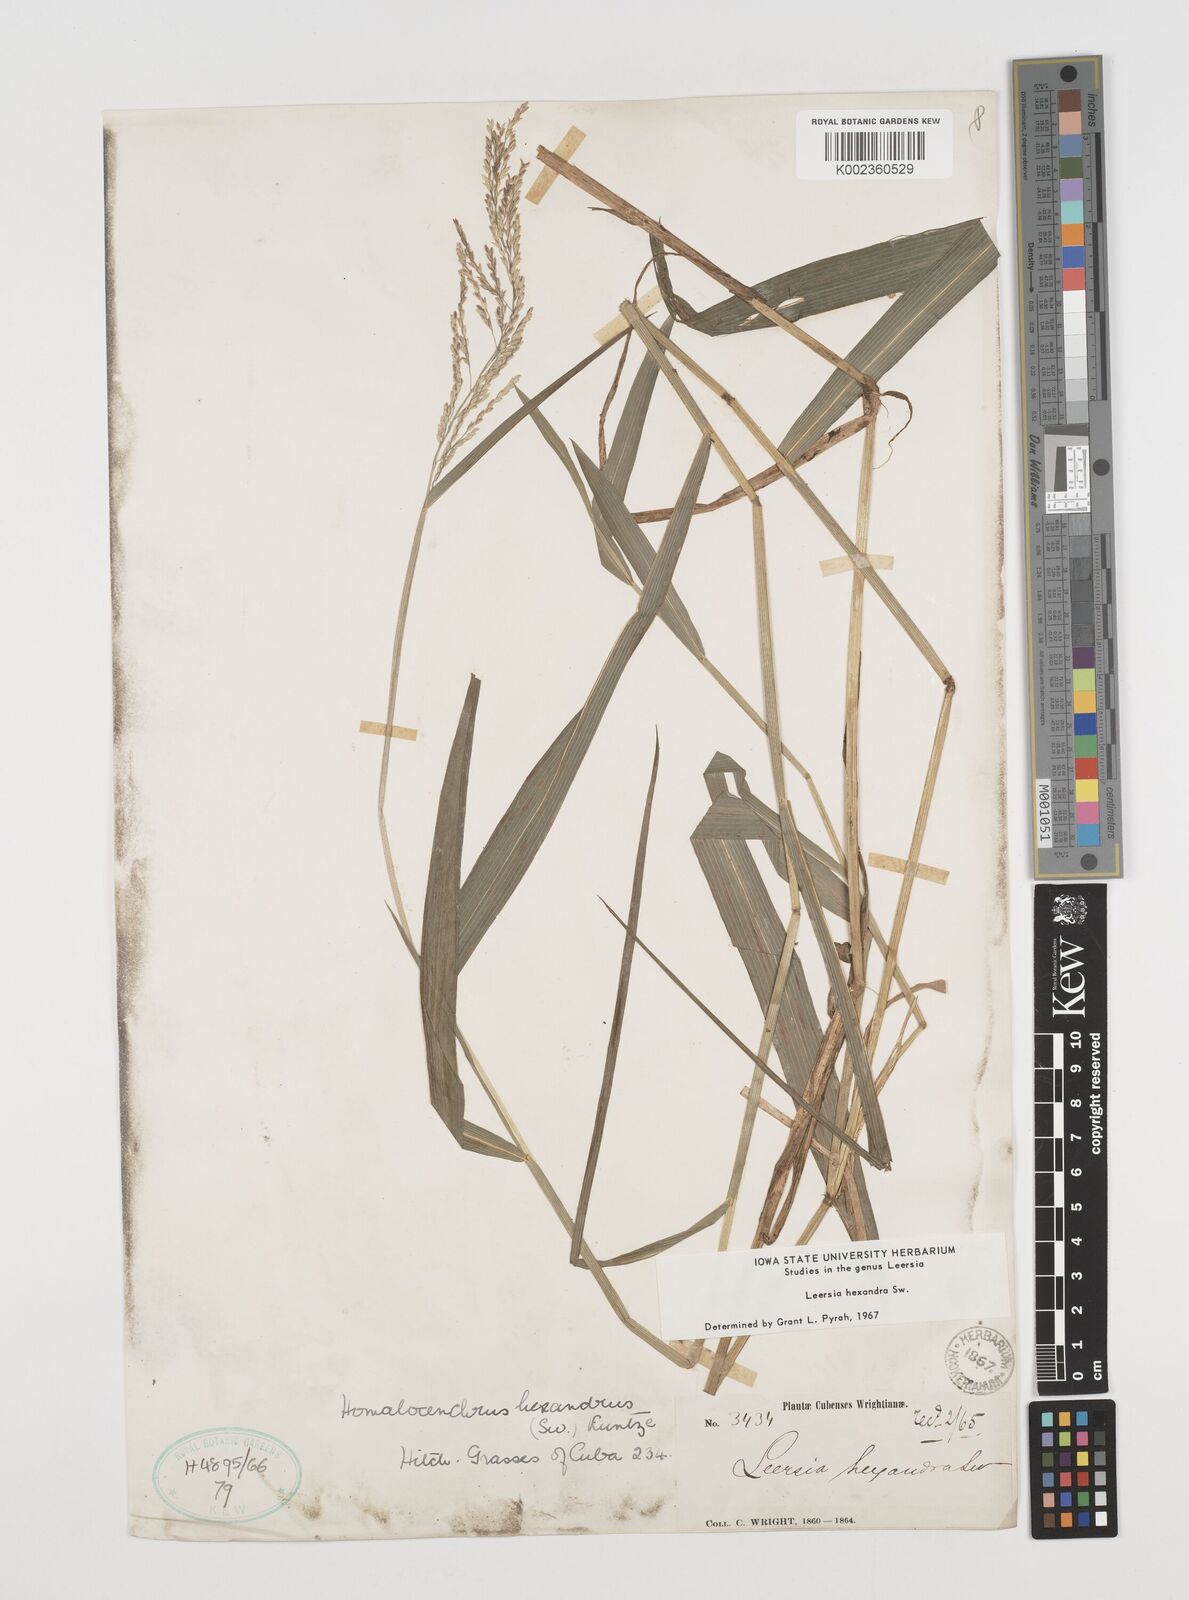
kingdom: Plantae
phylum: Tracheophyta
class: Liliopsida
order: Poales
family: Poaceae
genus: Leersia
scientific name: Leersia hexandra
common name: Southern cut grass
